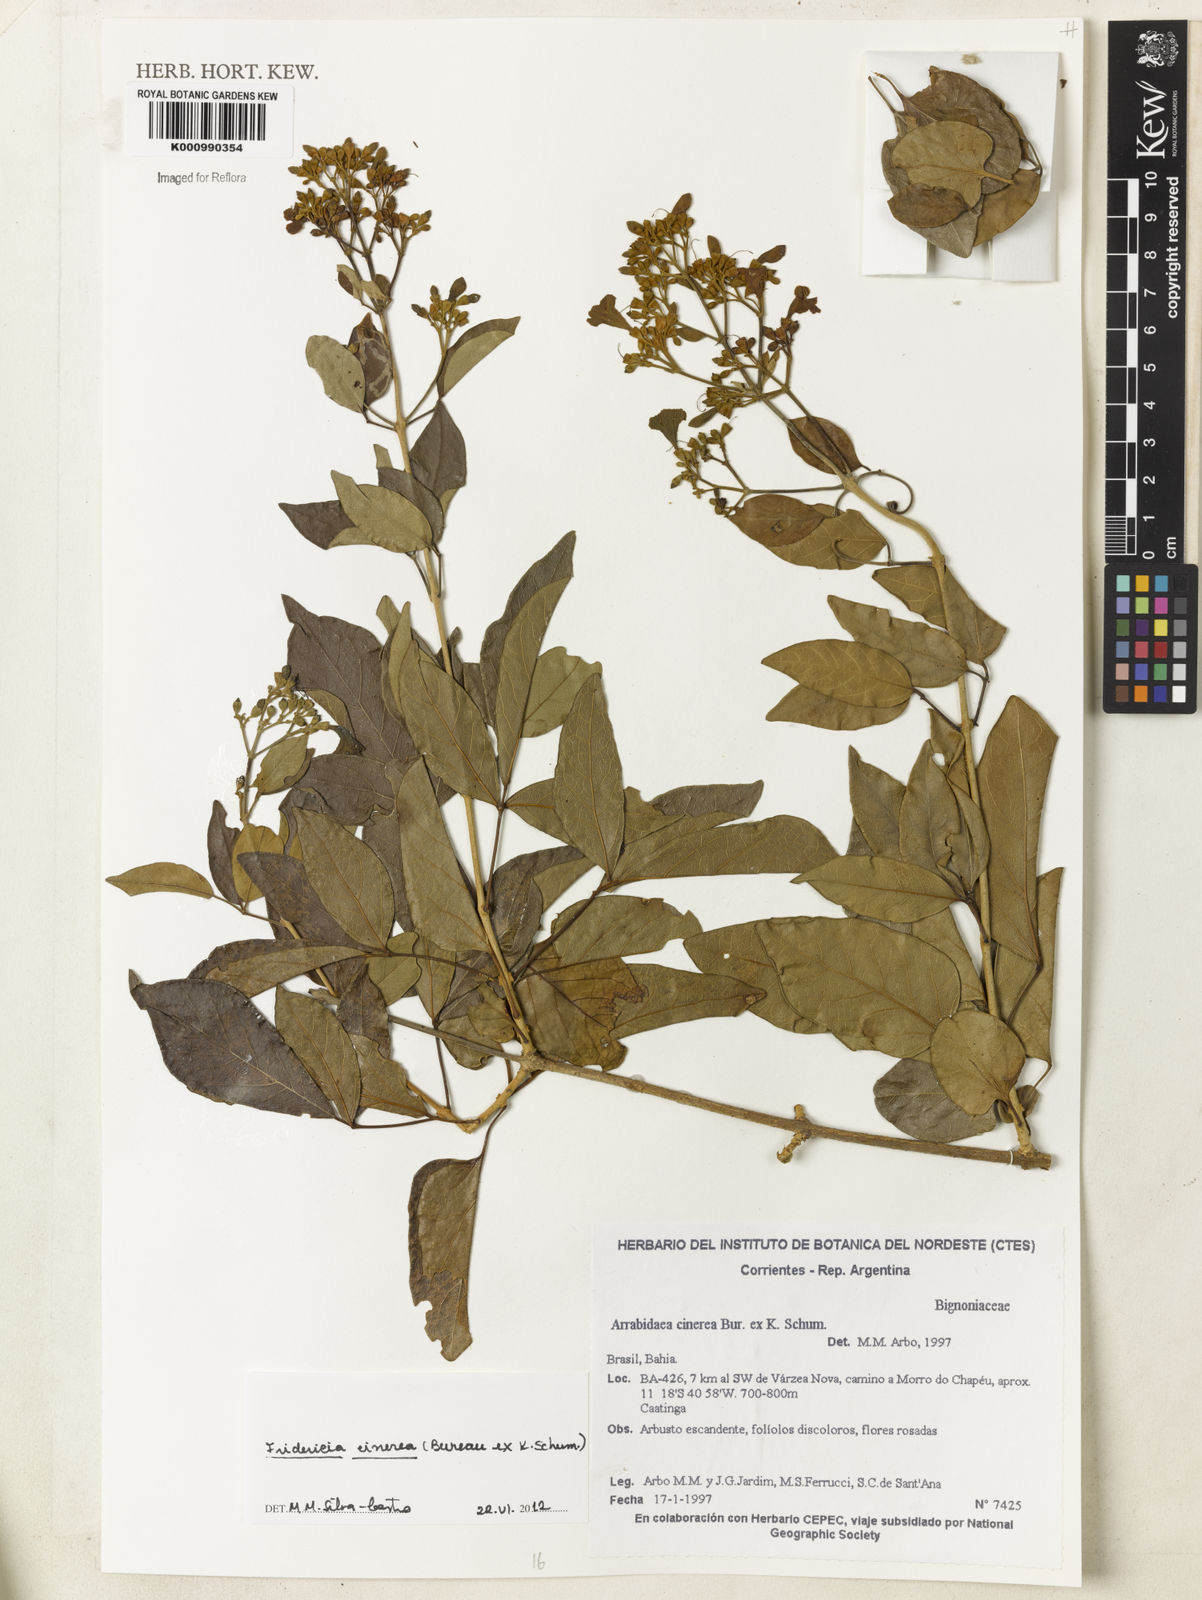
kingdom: Plantae
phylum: Tracheophyta
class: Magnoliopsida
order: Lamiales
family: Bignoniaceae
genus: Fridericia
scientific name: Fridericia cinerea
